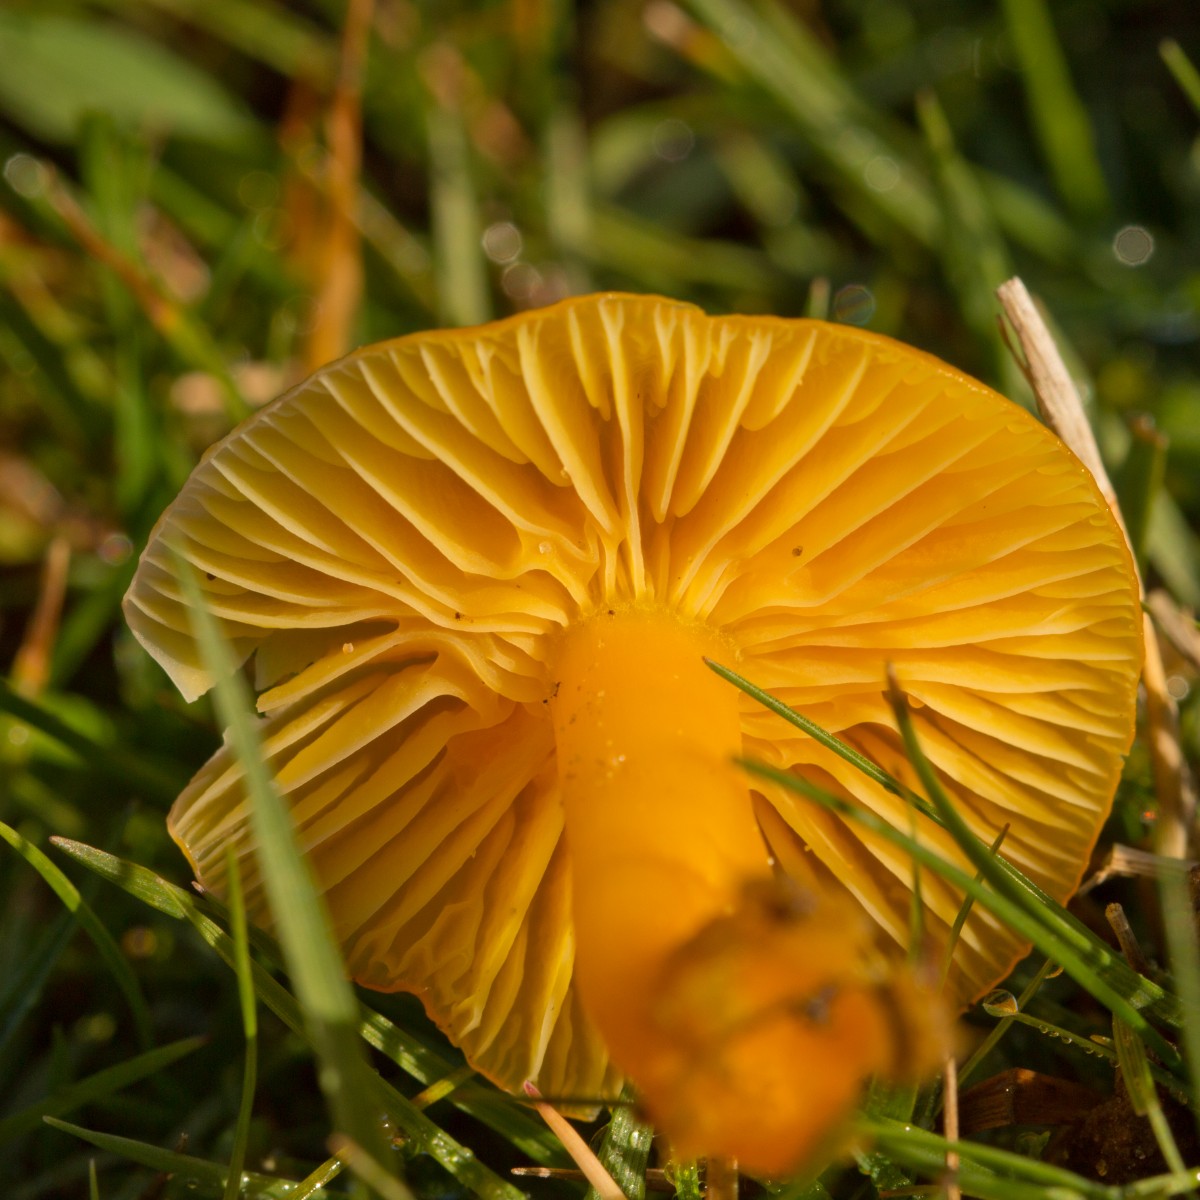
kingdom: Fungi
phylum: Basidiomycota
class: Agaricomycetes
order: Agaricales
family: Hygrophoraceae
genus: Hygrocybe
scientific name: Hygrocybe ceracea
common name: voksgul vokshat
